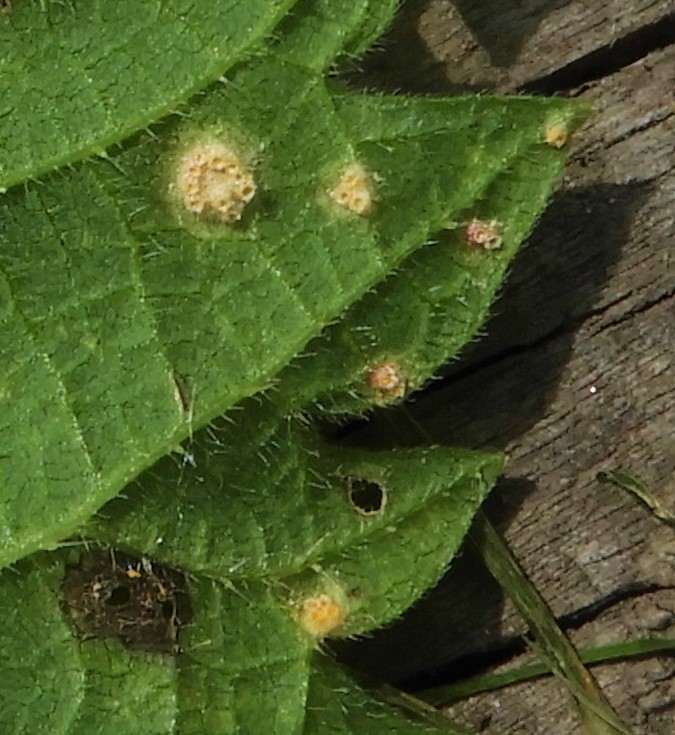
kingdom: Fungi
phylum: Basidiomycota
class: Pucciniomycetes
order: Pucciniales
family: Pucciniaceae
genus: Puccinia
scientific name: Puccinia urticata
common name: nældegalle-tvecellerust
